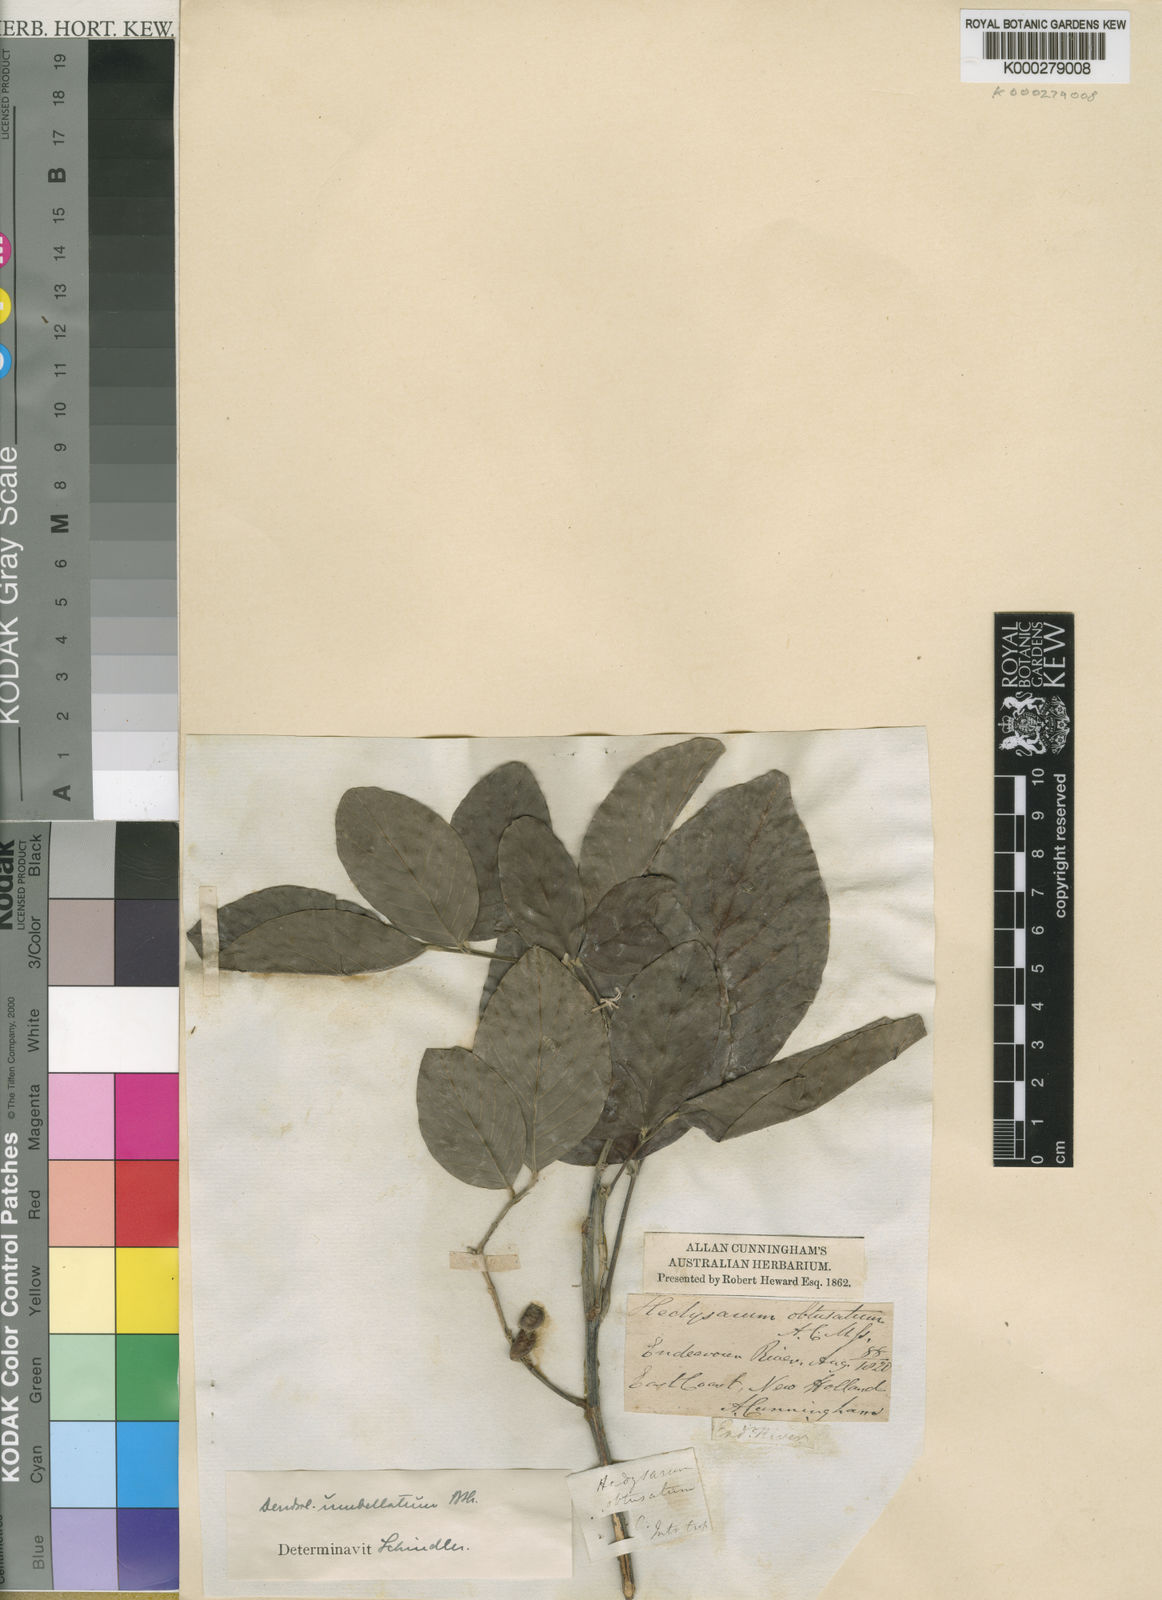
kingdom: Plantae
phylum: Tracheophyta
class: Liliopsida
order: Asparagales
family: Orchidaceae
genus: Dendrobium
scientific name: Dendrobium
